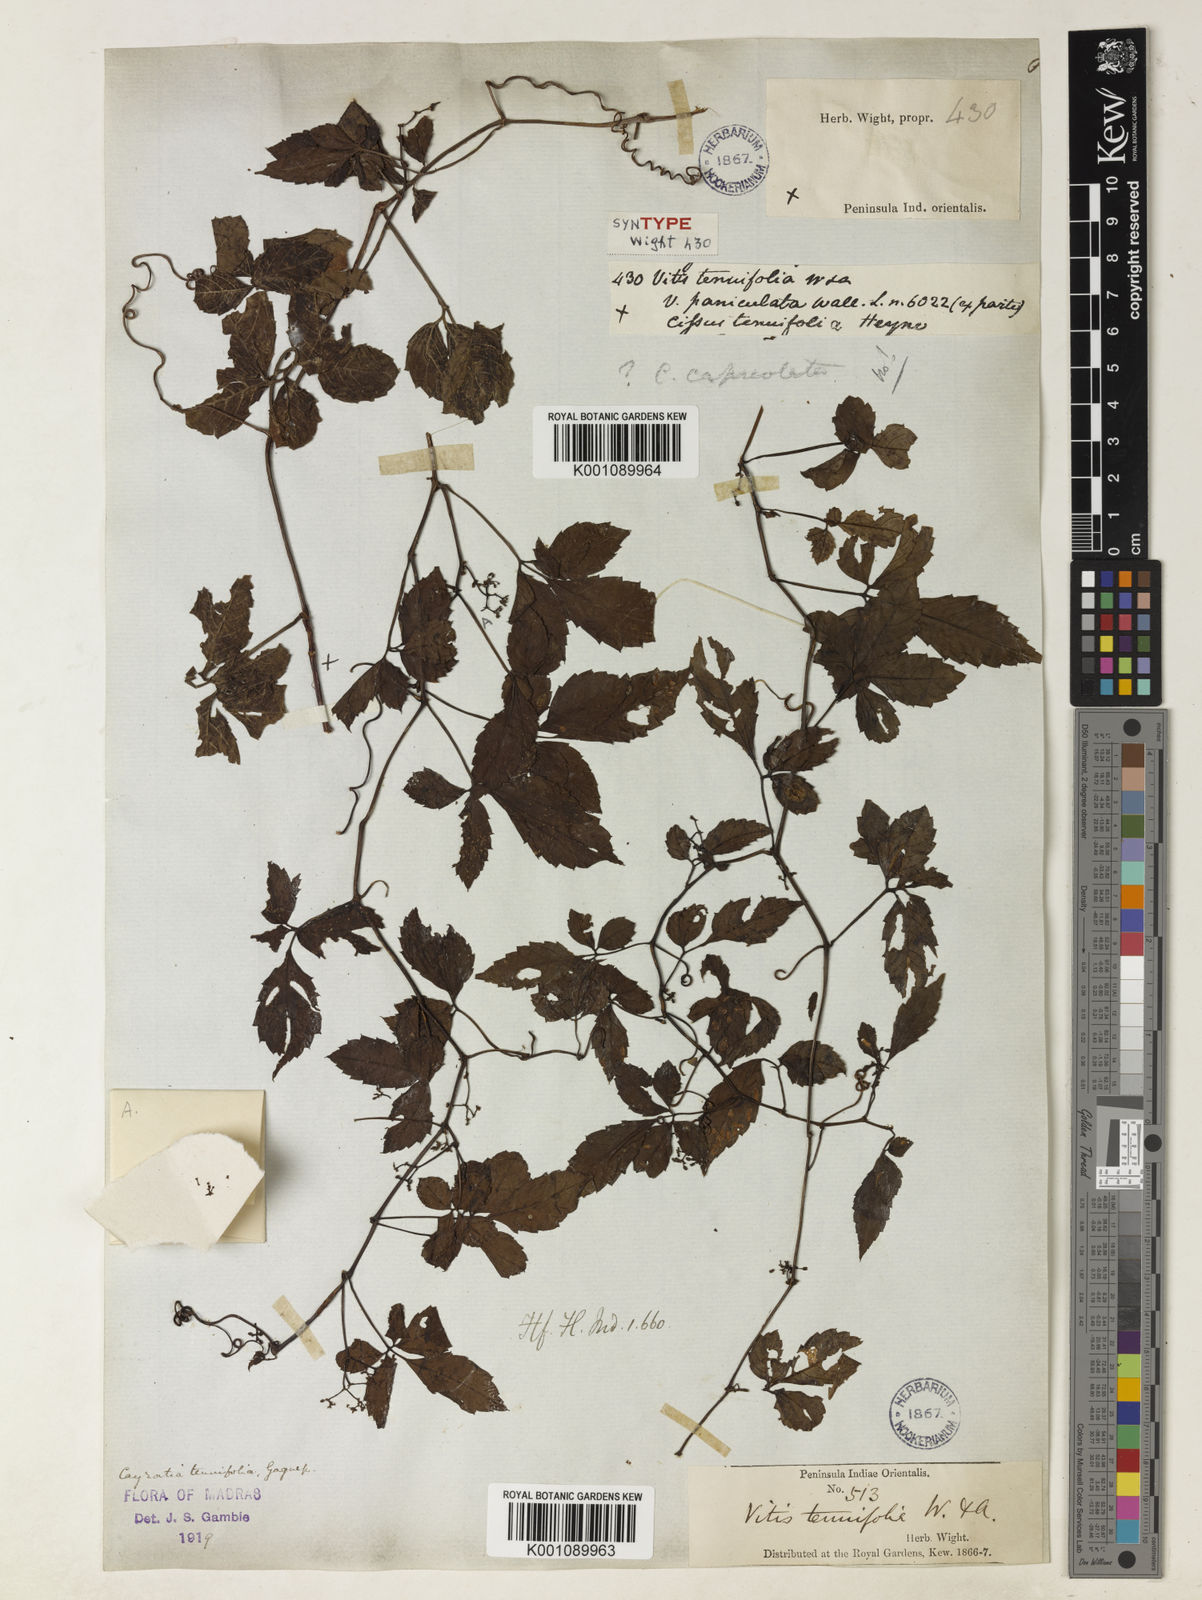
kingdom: Plantae
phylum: Tracheophyta
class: Magnoliopsida
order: Vitales
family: Vitaceae
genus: Causonis
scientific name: Causonis tenuifolia
